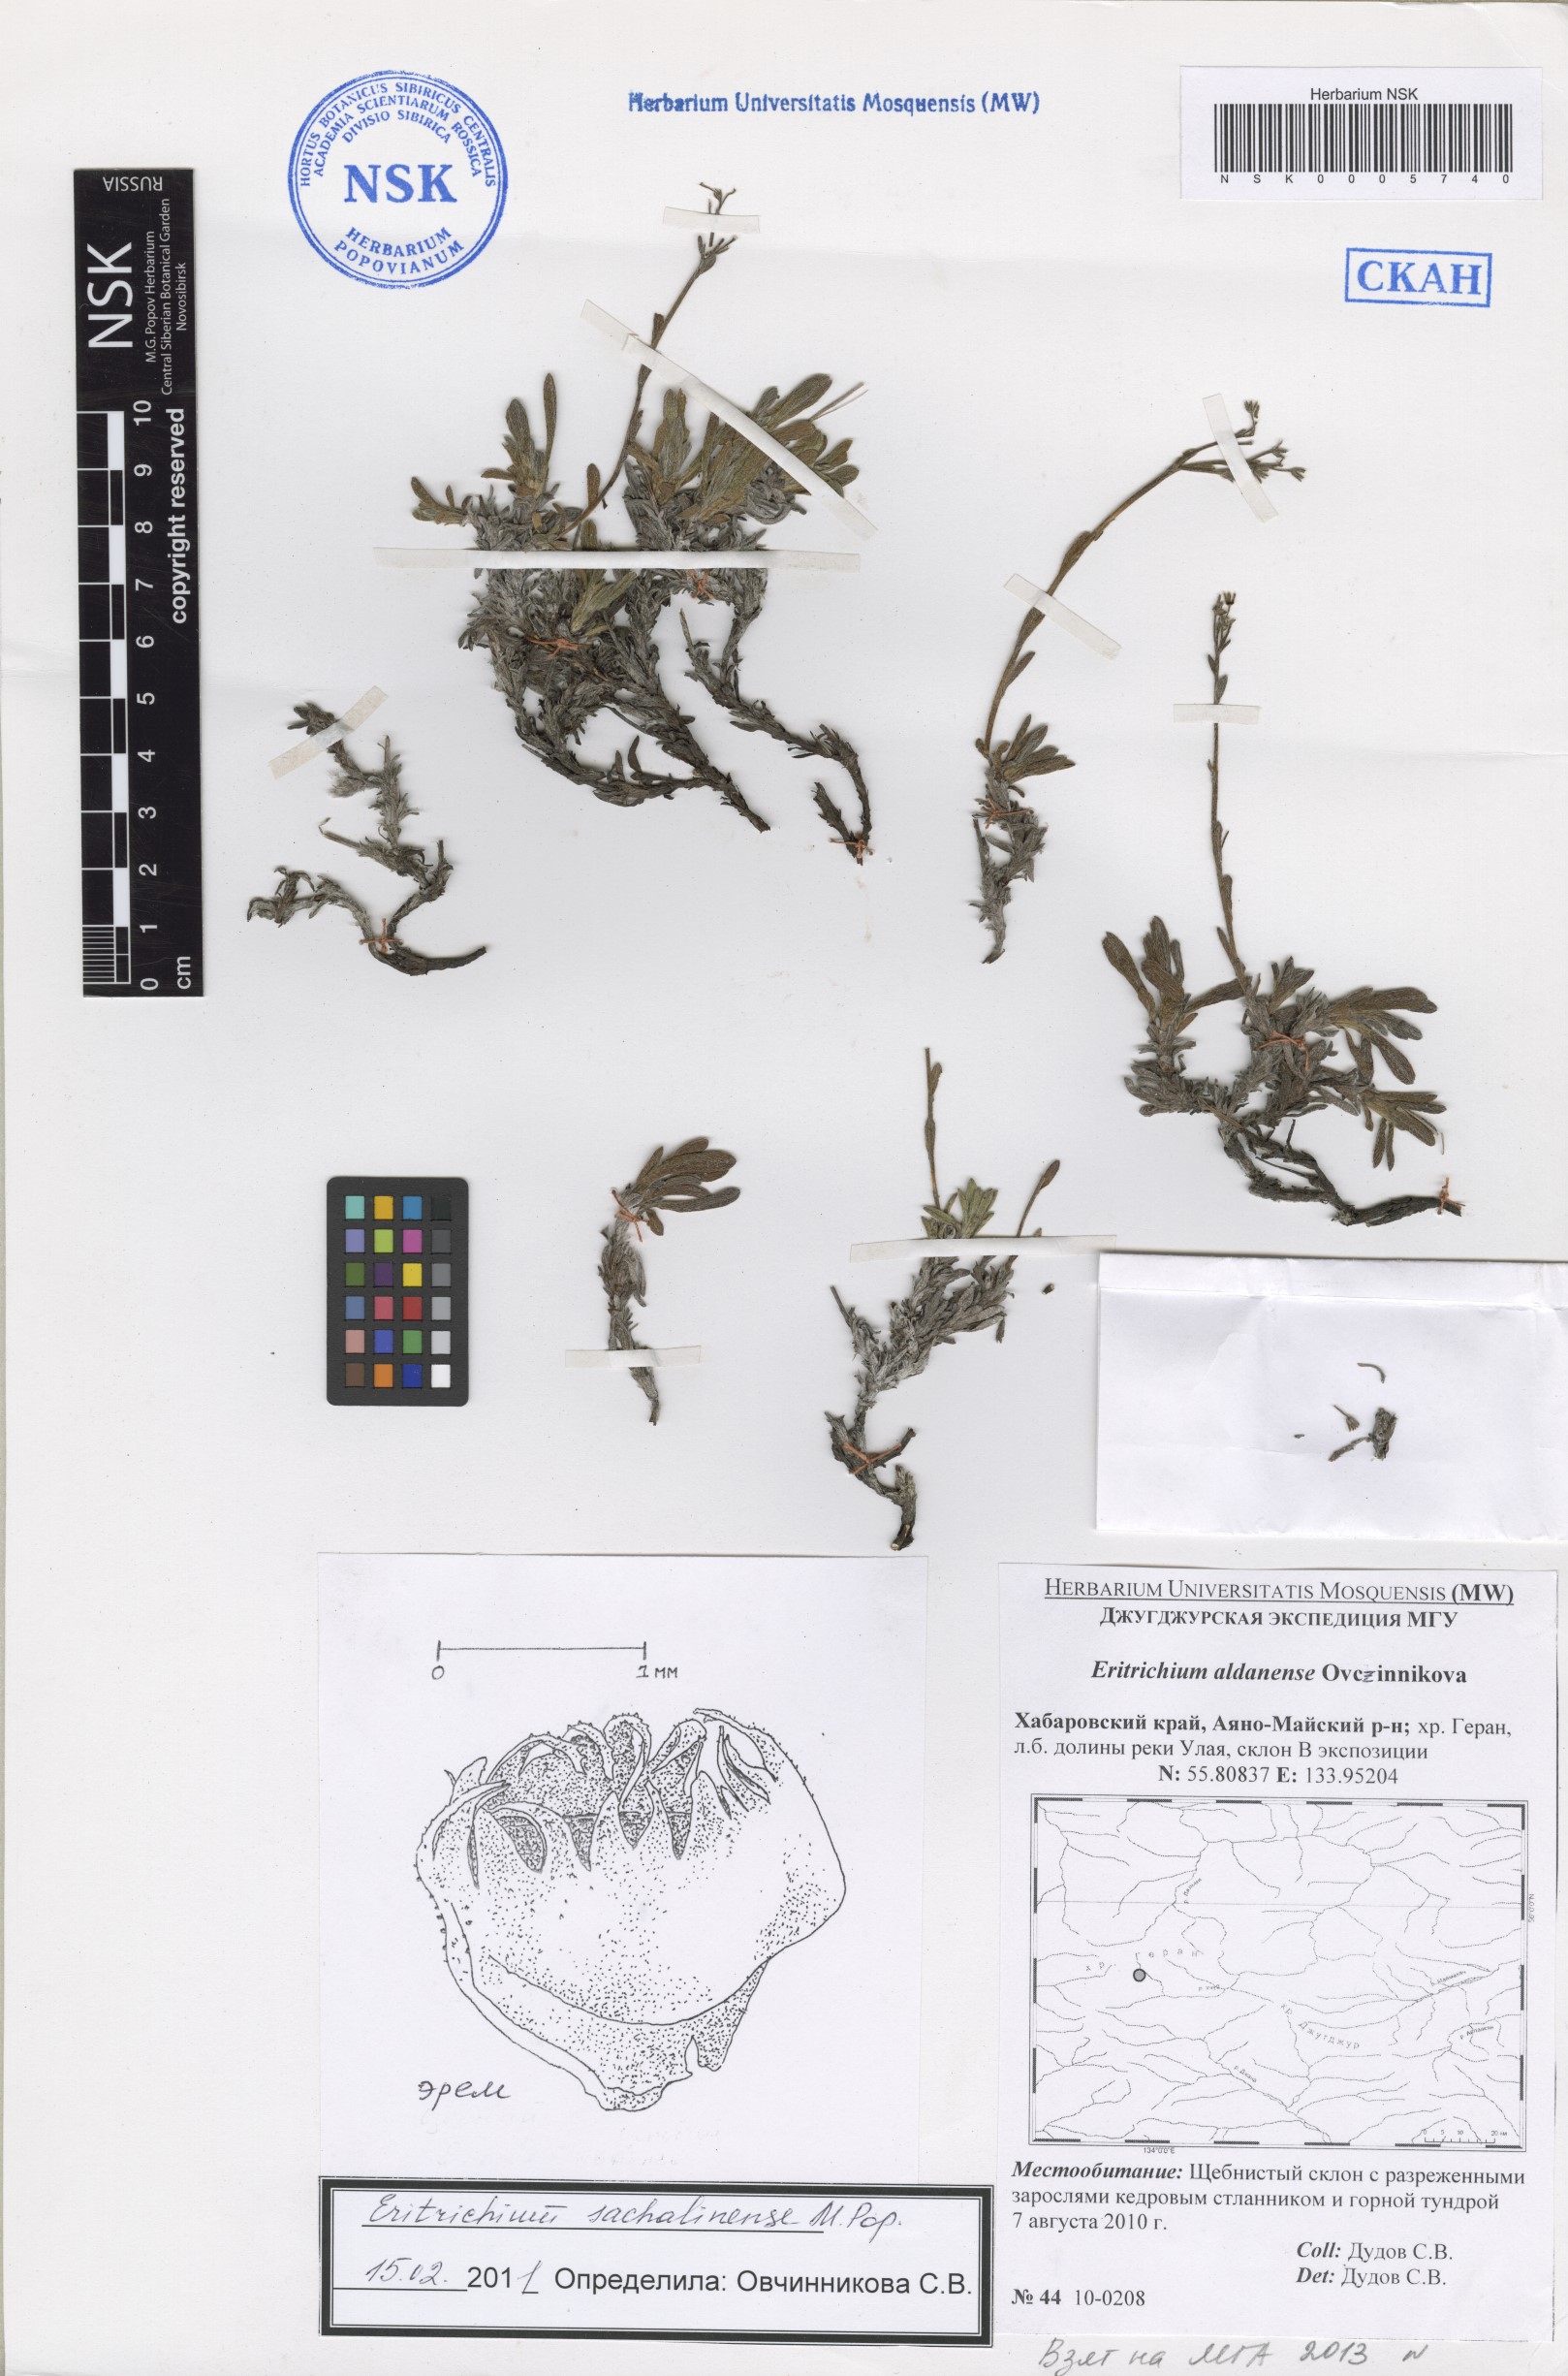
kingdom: Plantae
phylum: Tracheophyta
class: Magnoliopsida
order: Boraginales
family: Boraginaceae
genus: Eritrichium
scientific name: Eritrichium nipponicum
